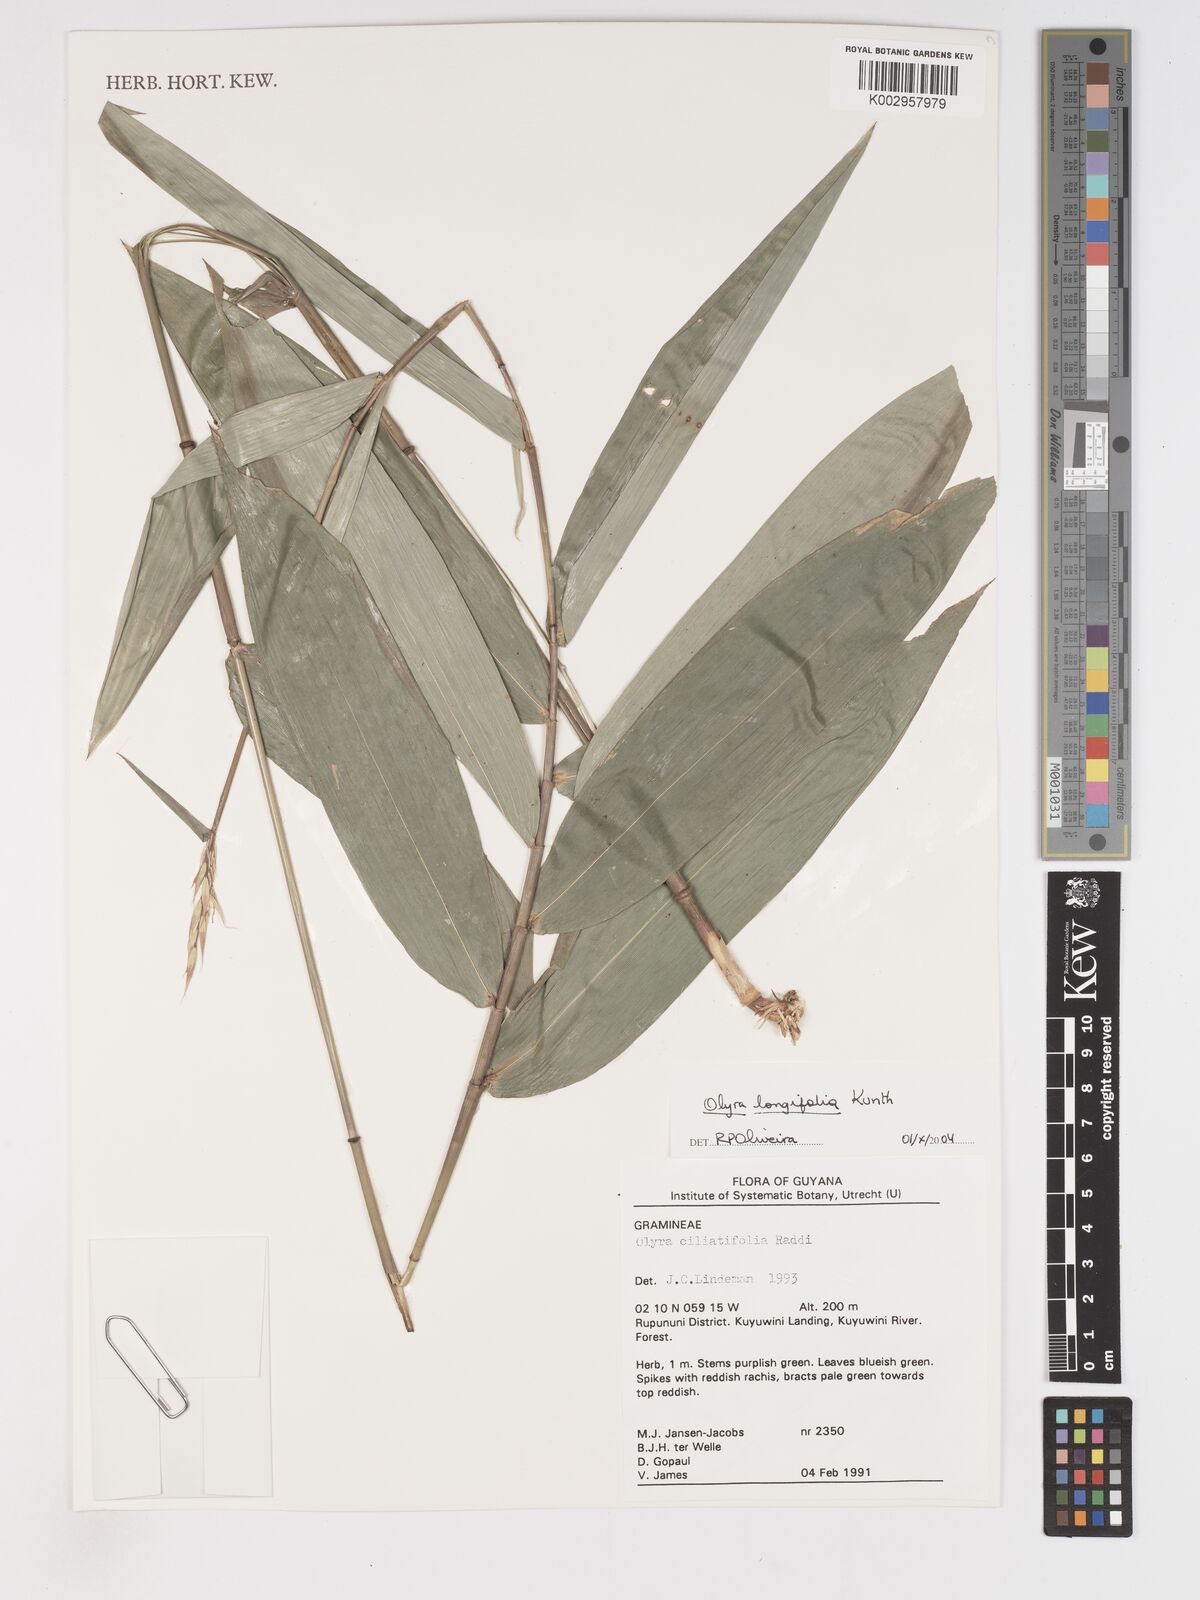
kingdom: Plantae
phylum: Tracheophyta
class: Liliopsida
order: Poales
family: Poaceae
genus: Olyra
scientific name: Olyra longifolia
